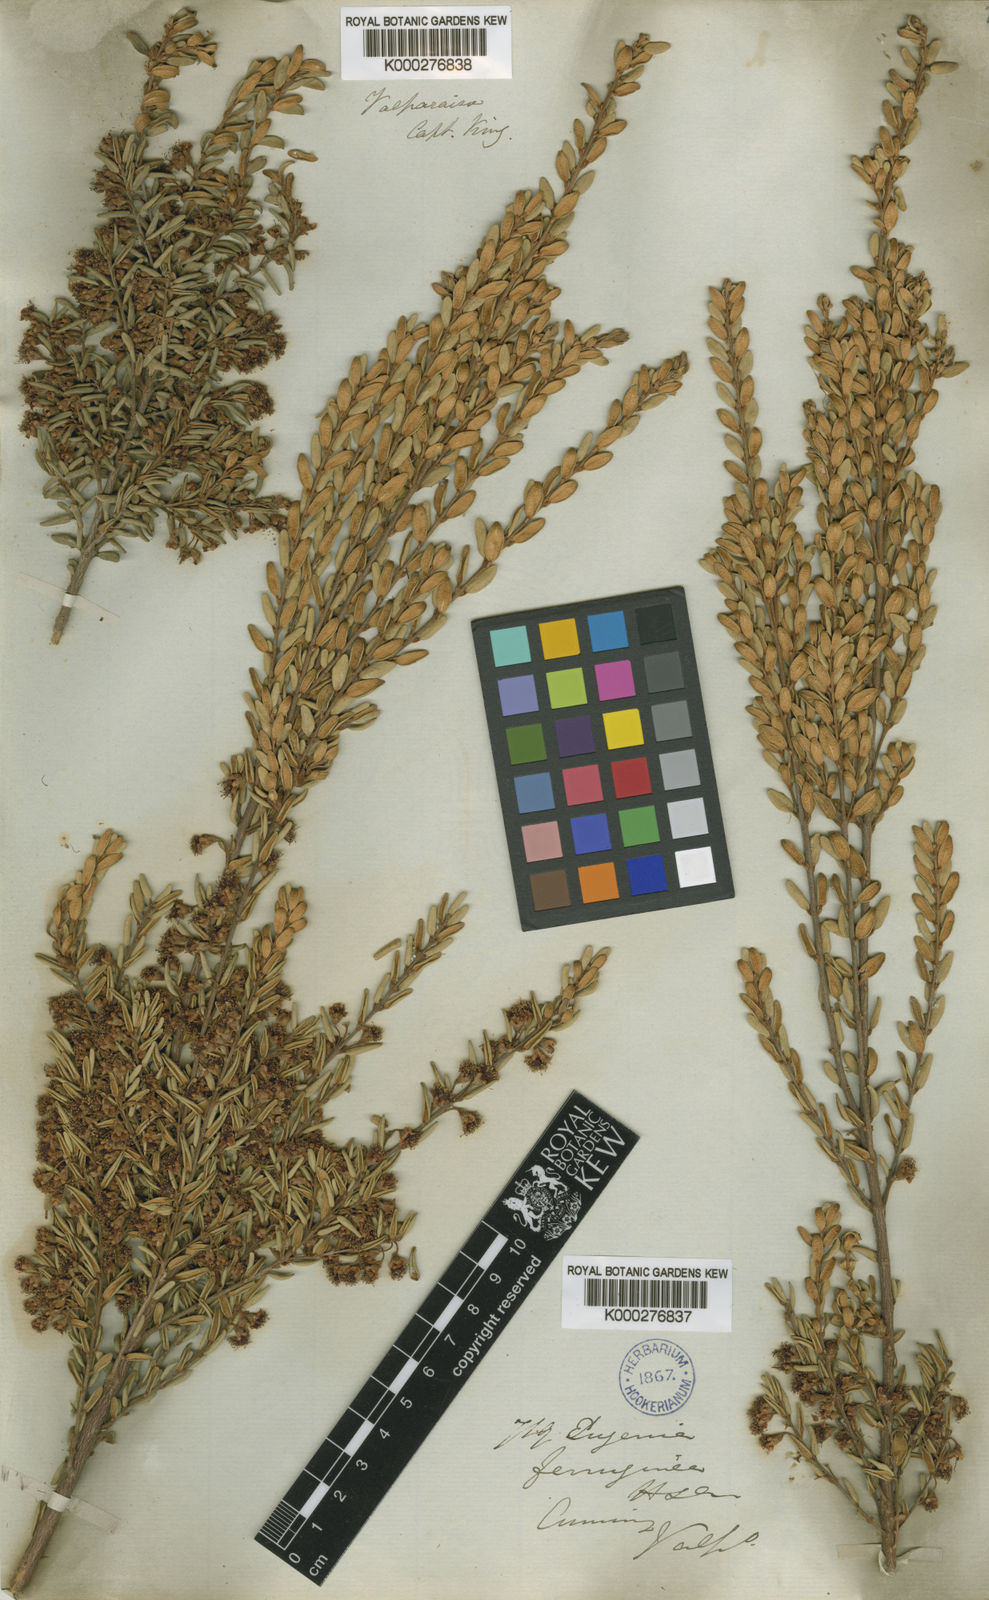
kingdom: Plantae
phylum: Tracheophyta
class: Magnoliopsida
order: Myrtales
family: Myrtaceae
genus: Myrceugenia
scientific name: Myrceugenia obtusa
